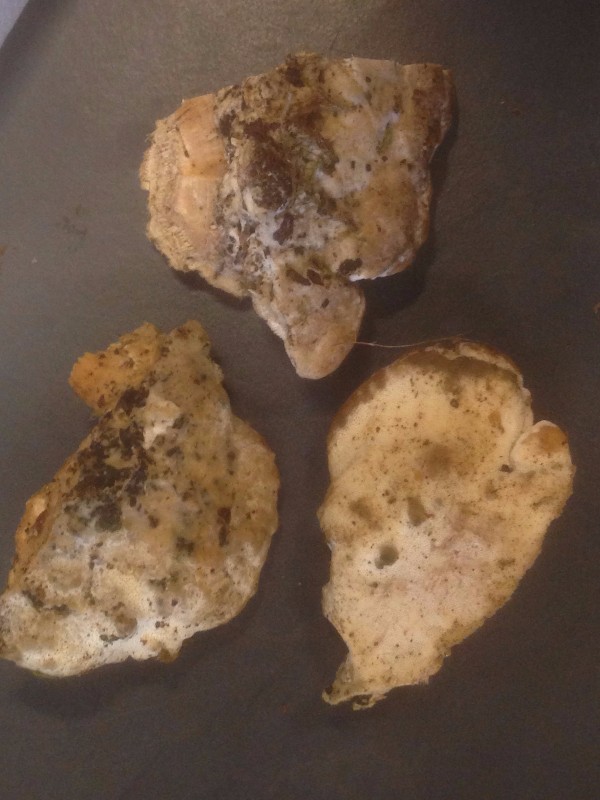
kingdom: Fungi
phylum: Basidiomycota
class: Agaricomycetes
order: Hymenochaetales
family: Oxyporaceae
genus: Oxyporus
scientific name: Oxyporus populinus
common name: sammenvokset trylleporesvamp
